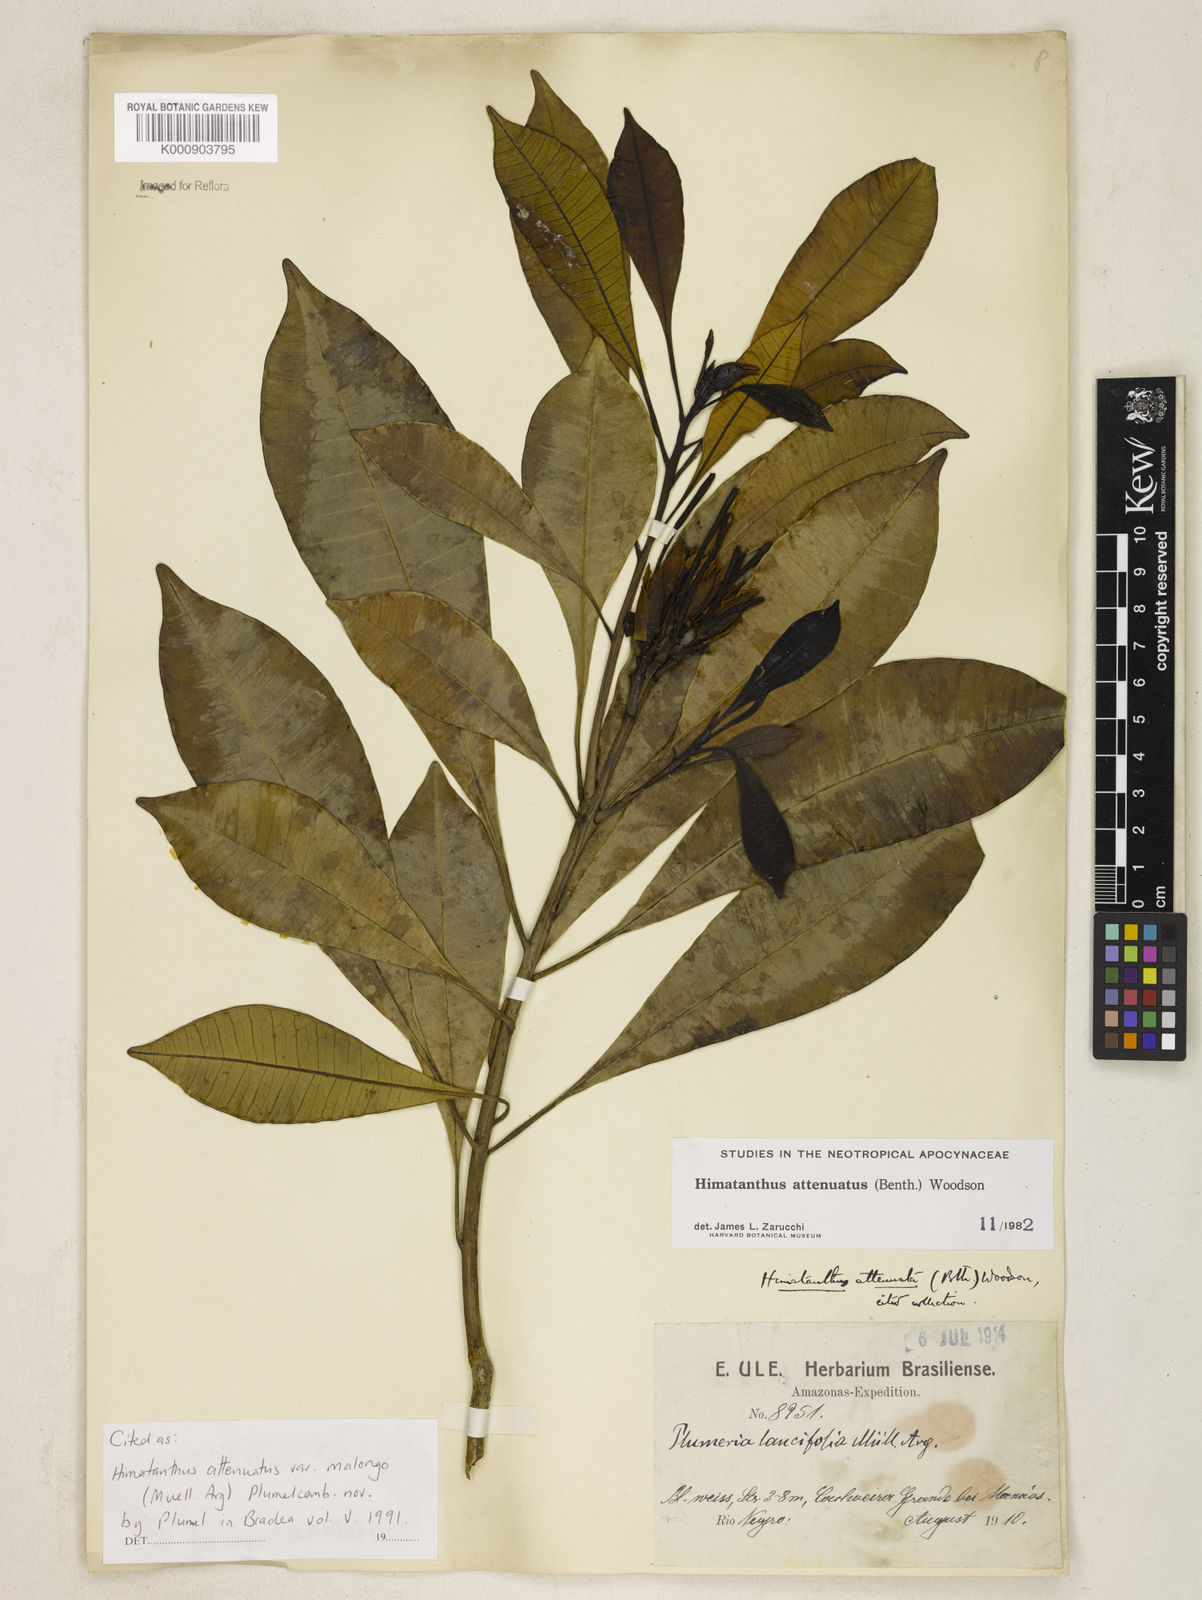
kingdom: Plantae
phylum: Tracheophyta
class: Magnoliopsida
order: Gentianales
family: Apocynaceae
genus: Himatanthus
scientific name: Himatanthus
